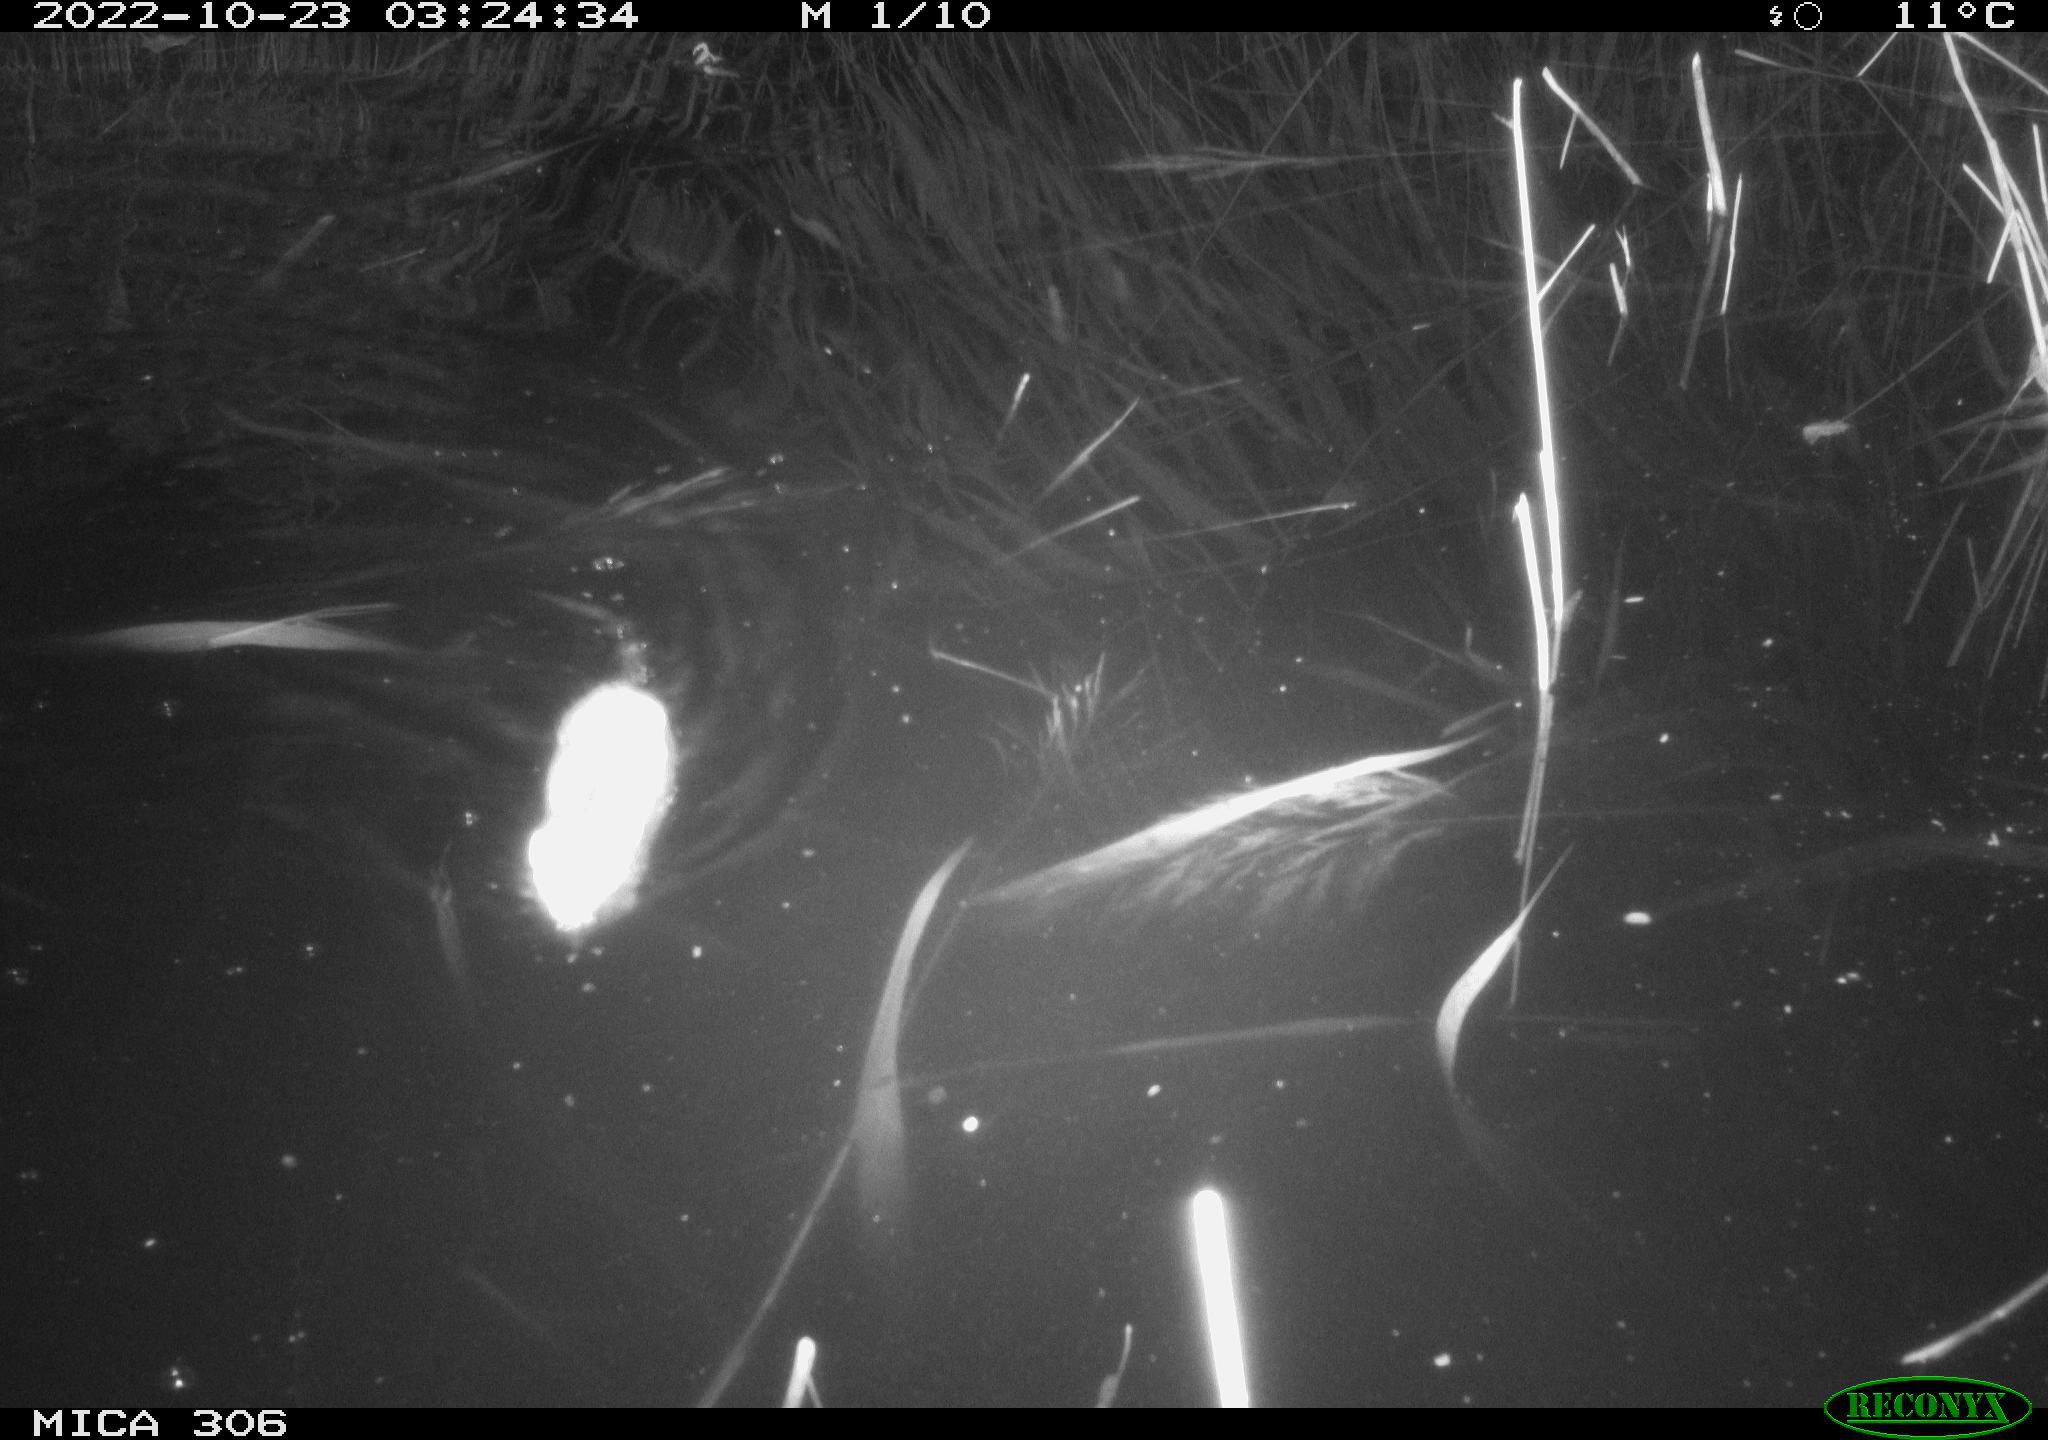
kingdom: Animalia
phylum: Chordata
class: Mammalia
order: Rodentia
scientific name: Rodentia
